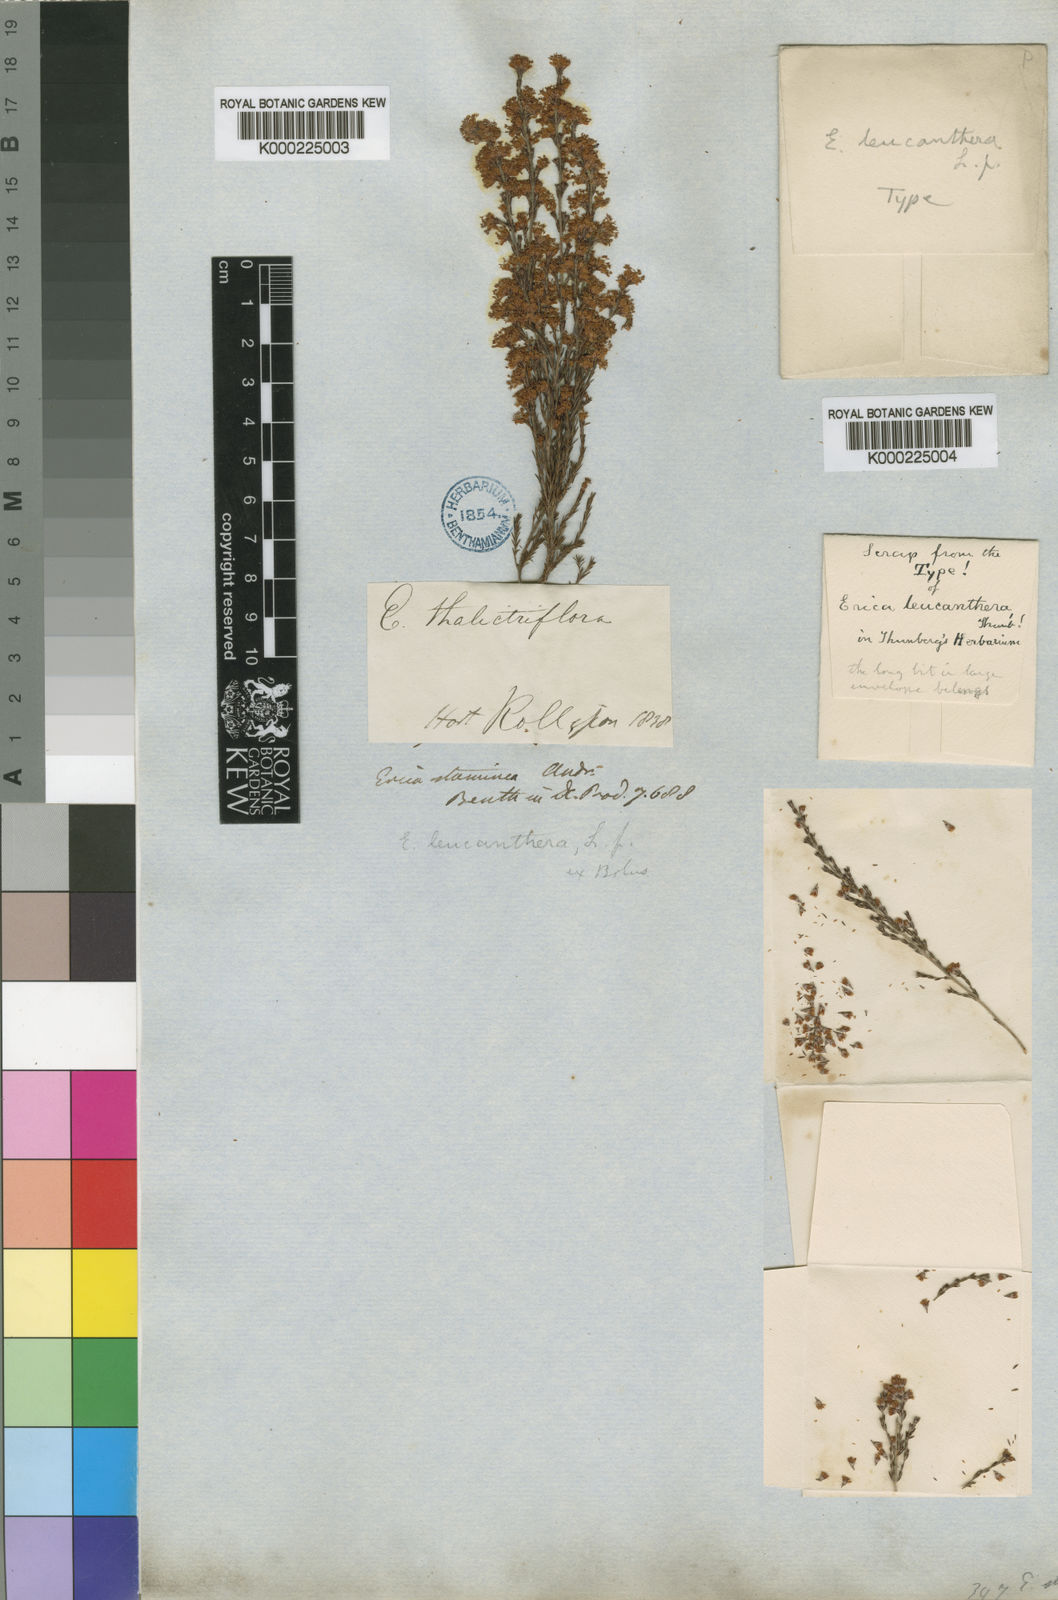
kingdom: Plantae
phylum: Tracheophyta
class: Magnoliopsida
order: Ericales
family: Ericaceae
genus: Erica
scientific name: Erica leucanthera
